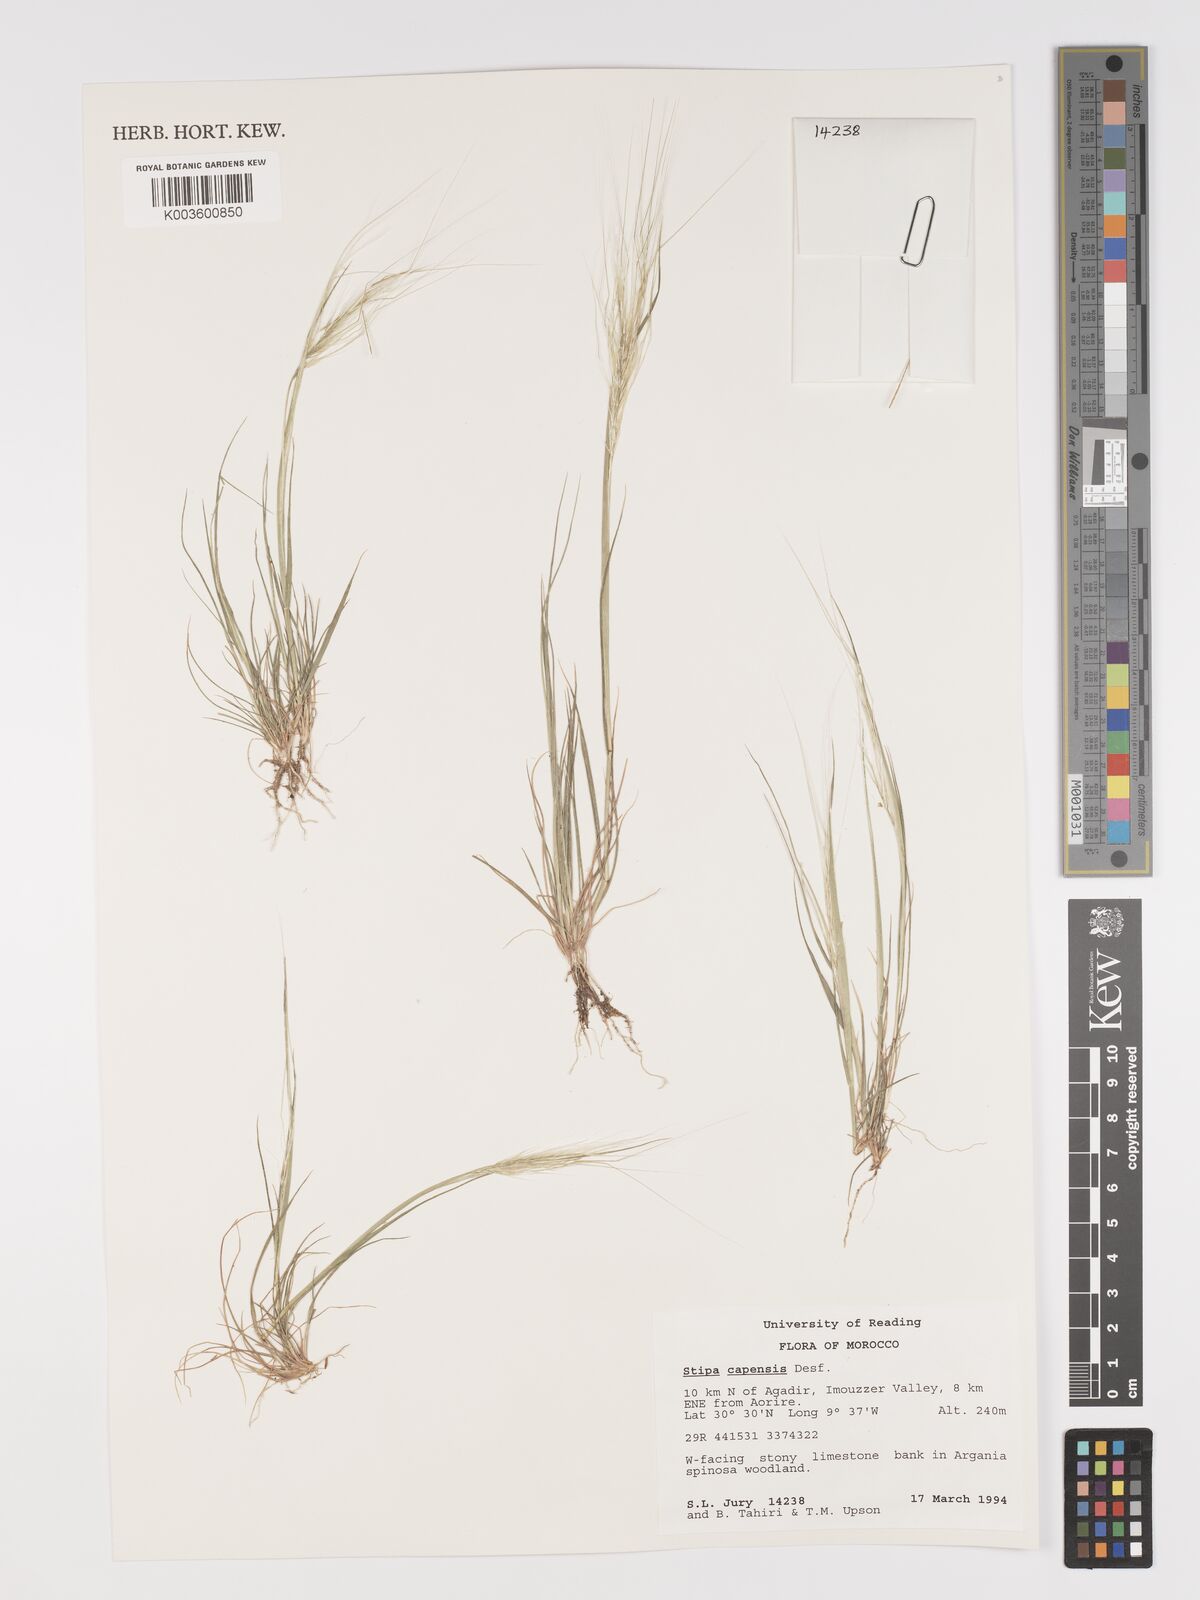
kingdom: Plantae
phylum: Tracheophyta
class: Liliopsida
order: Poales
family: Poaceae
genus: Stipellula
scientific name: Stipellula capensis
